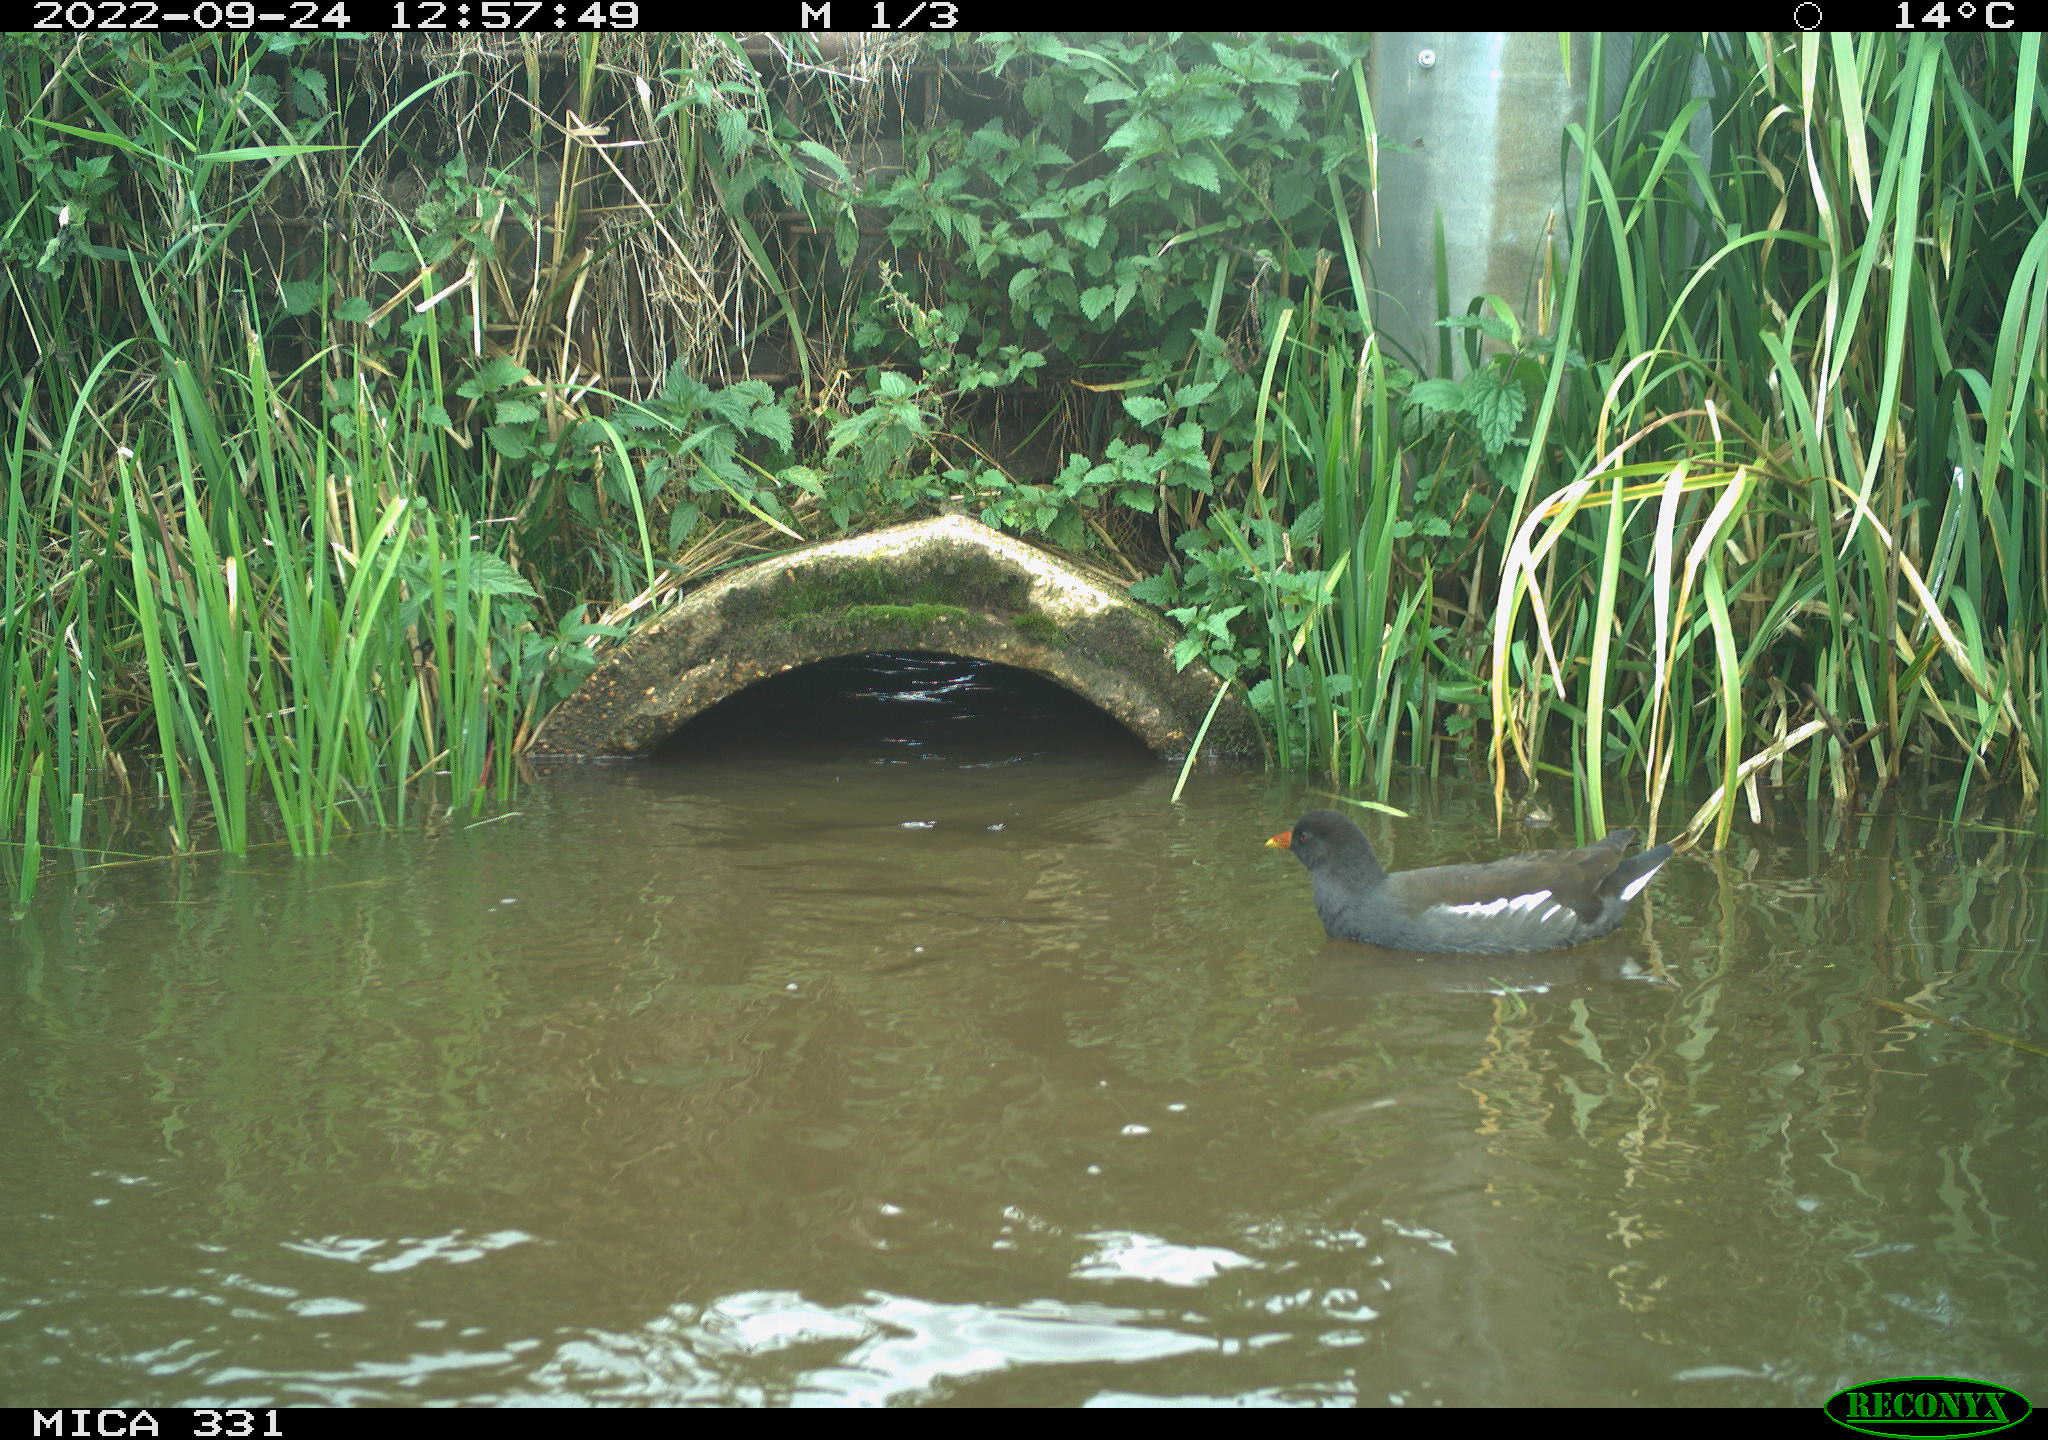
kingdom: Animalia
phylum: Chordata
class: Aves
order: Gruiformes
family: Rallidae
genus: Fulica
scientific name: Fulica atra
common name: Eurasian coot
